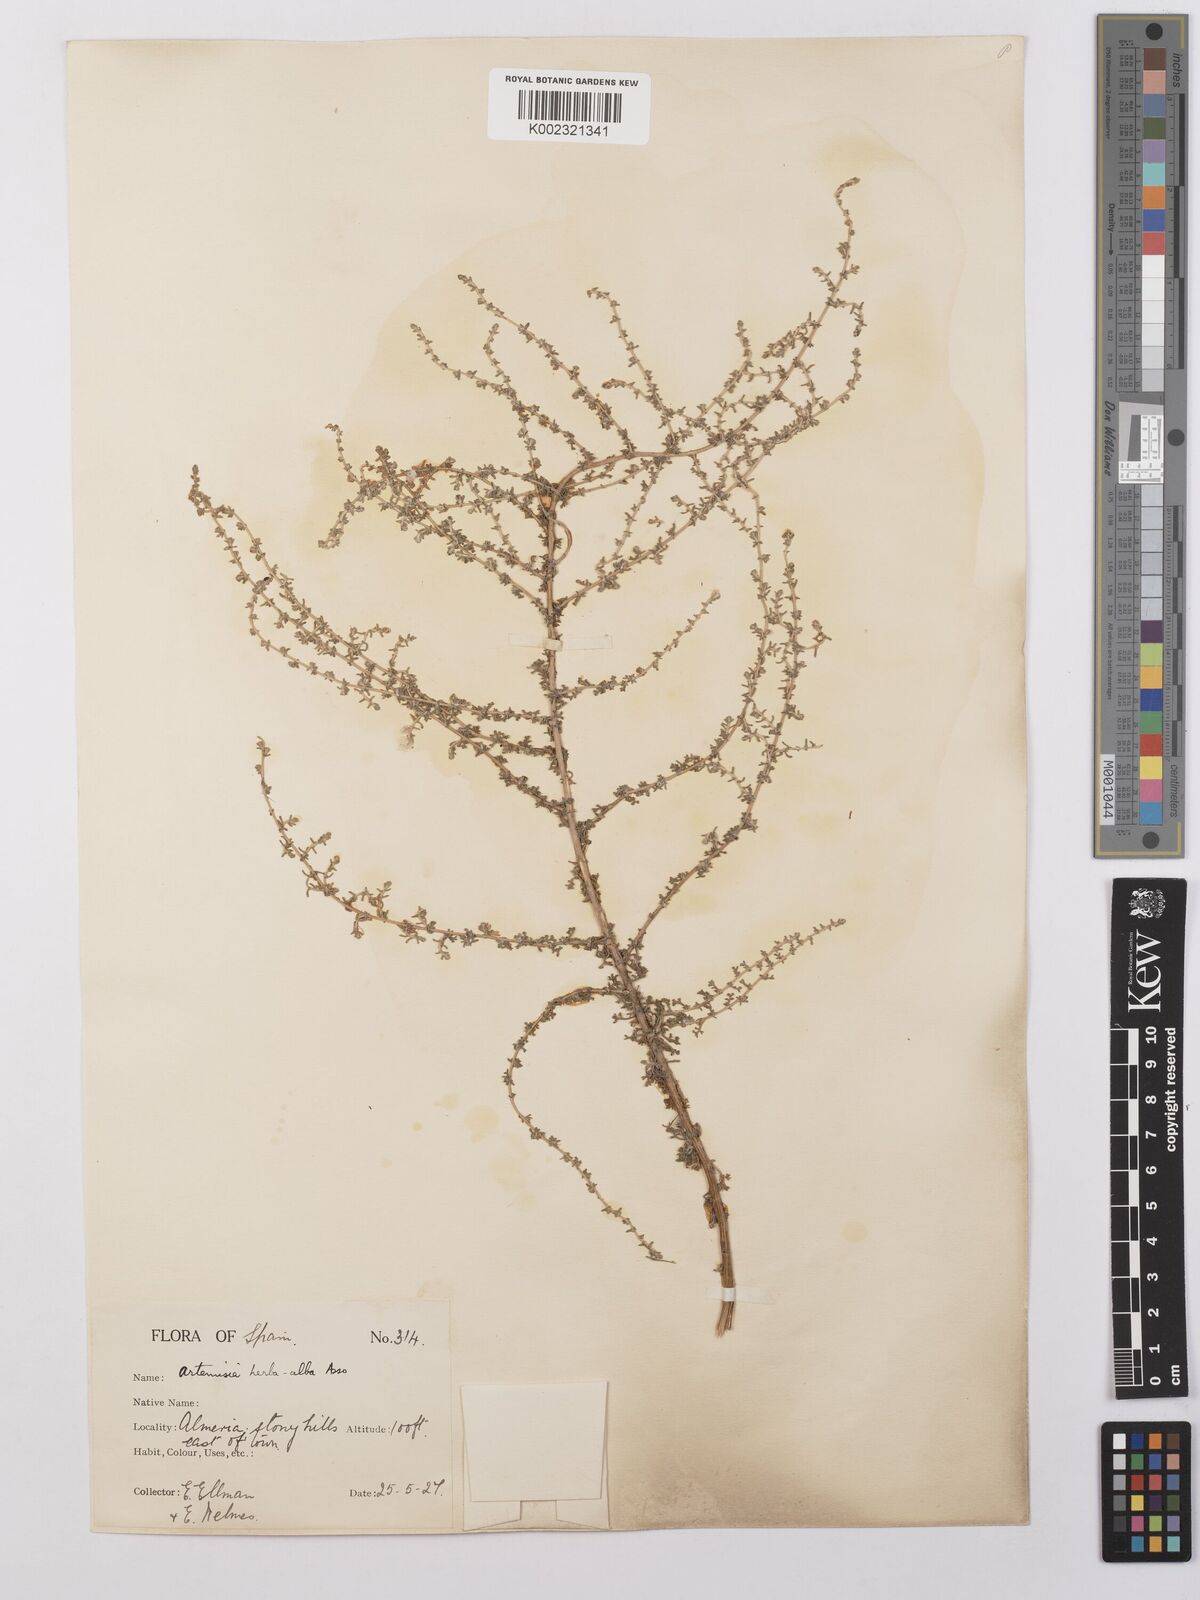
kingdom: Plantae
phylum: Tracheophyta
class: Magnoliopsida
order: Asterales
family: Asteraceae
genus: Artemisia
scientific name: Artemisia herba-alba
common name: White wormwood
